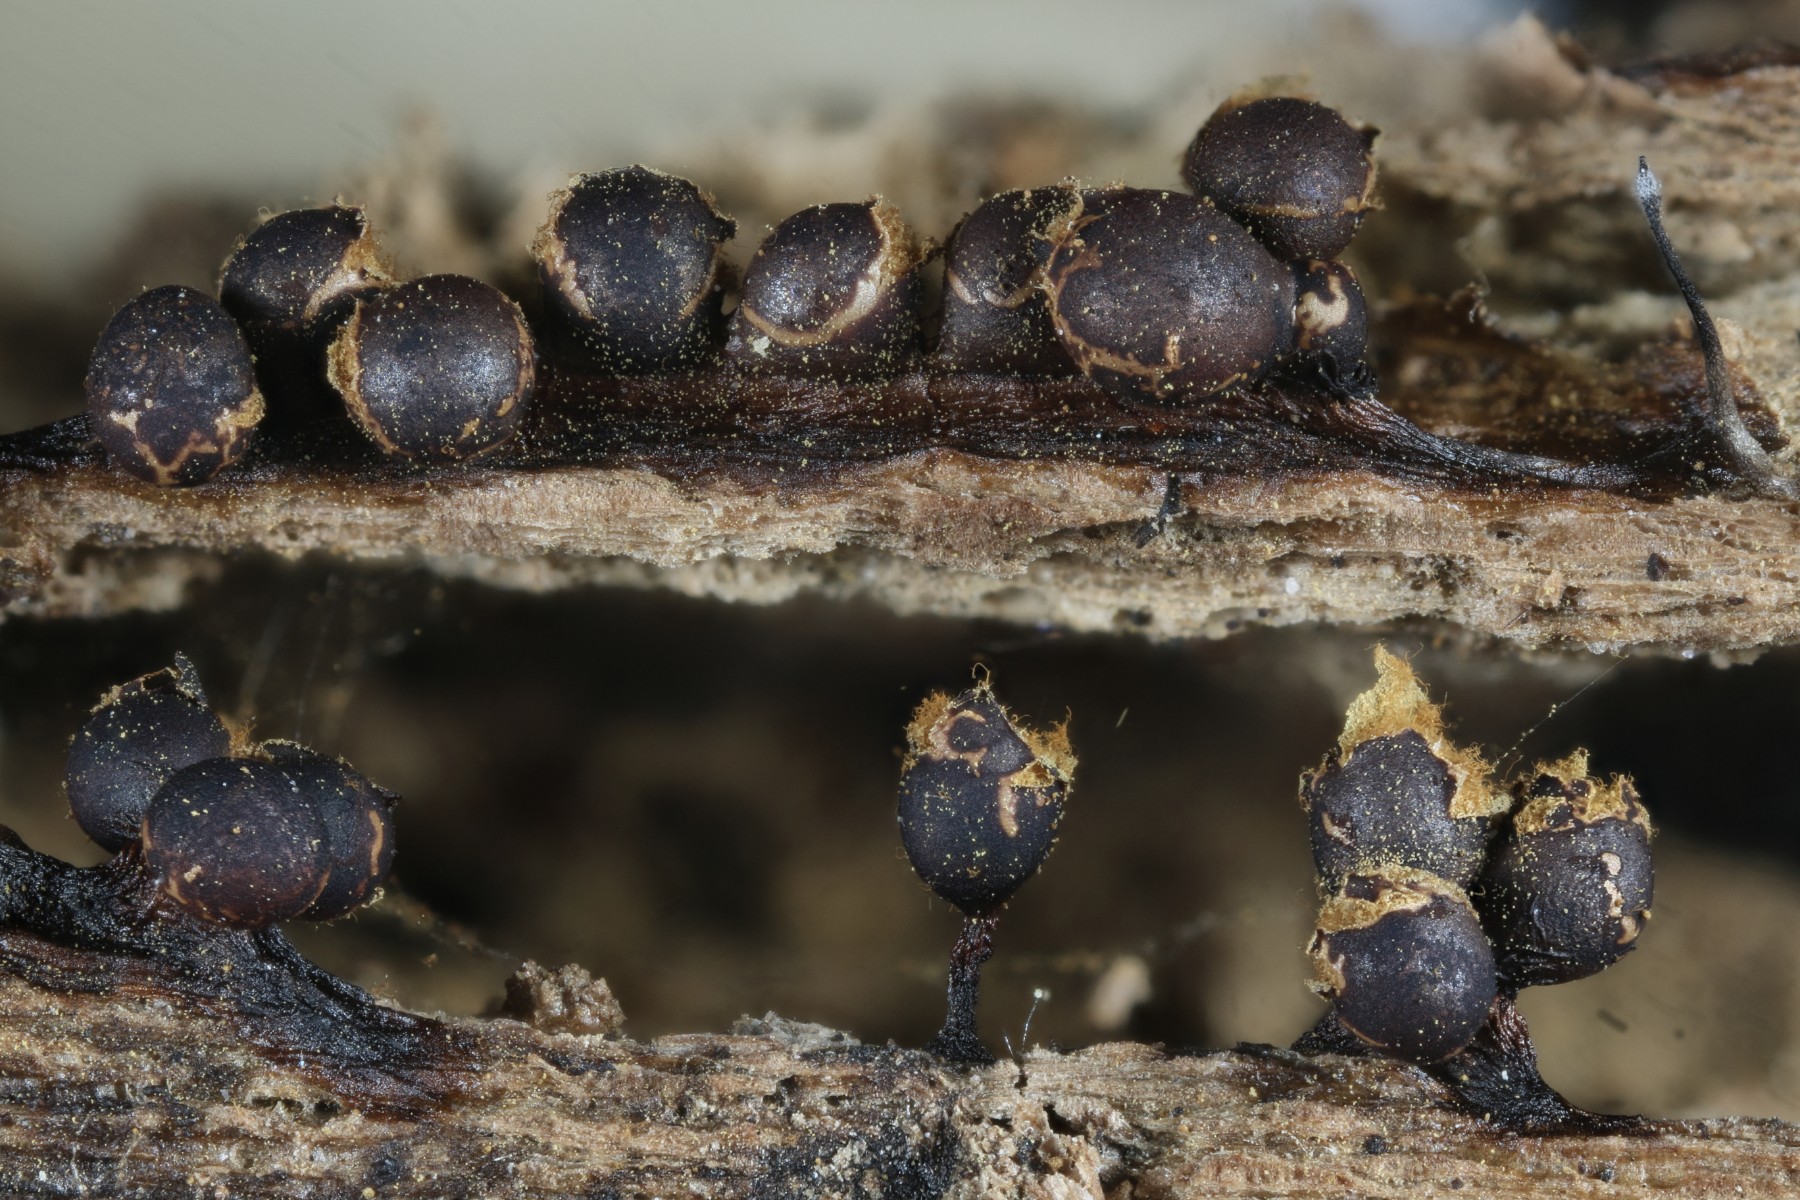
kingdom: Protozoa
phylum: Mycetozoa
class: Myxomycetes
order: Trichiales
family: Trichiaceae
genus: Trichia
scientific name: Trichia botrytis
